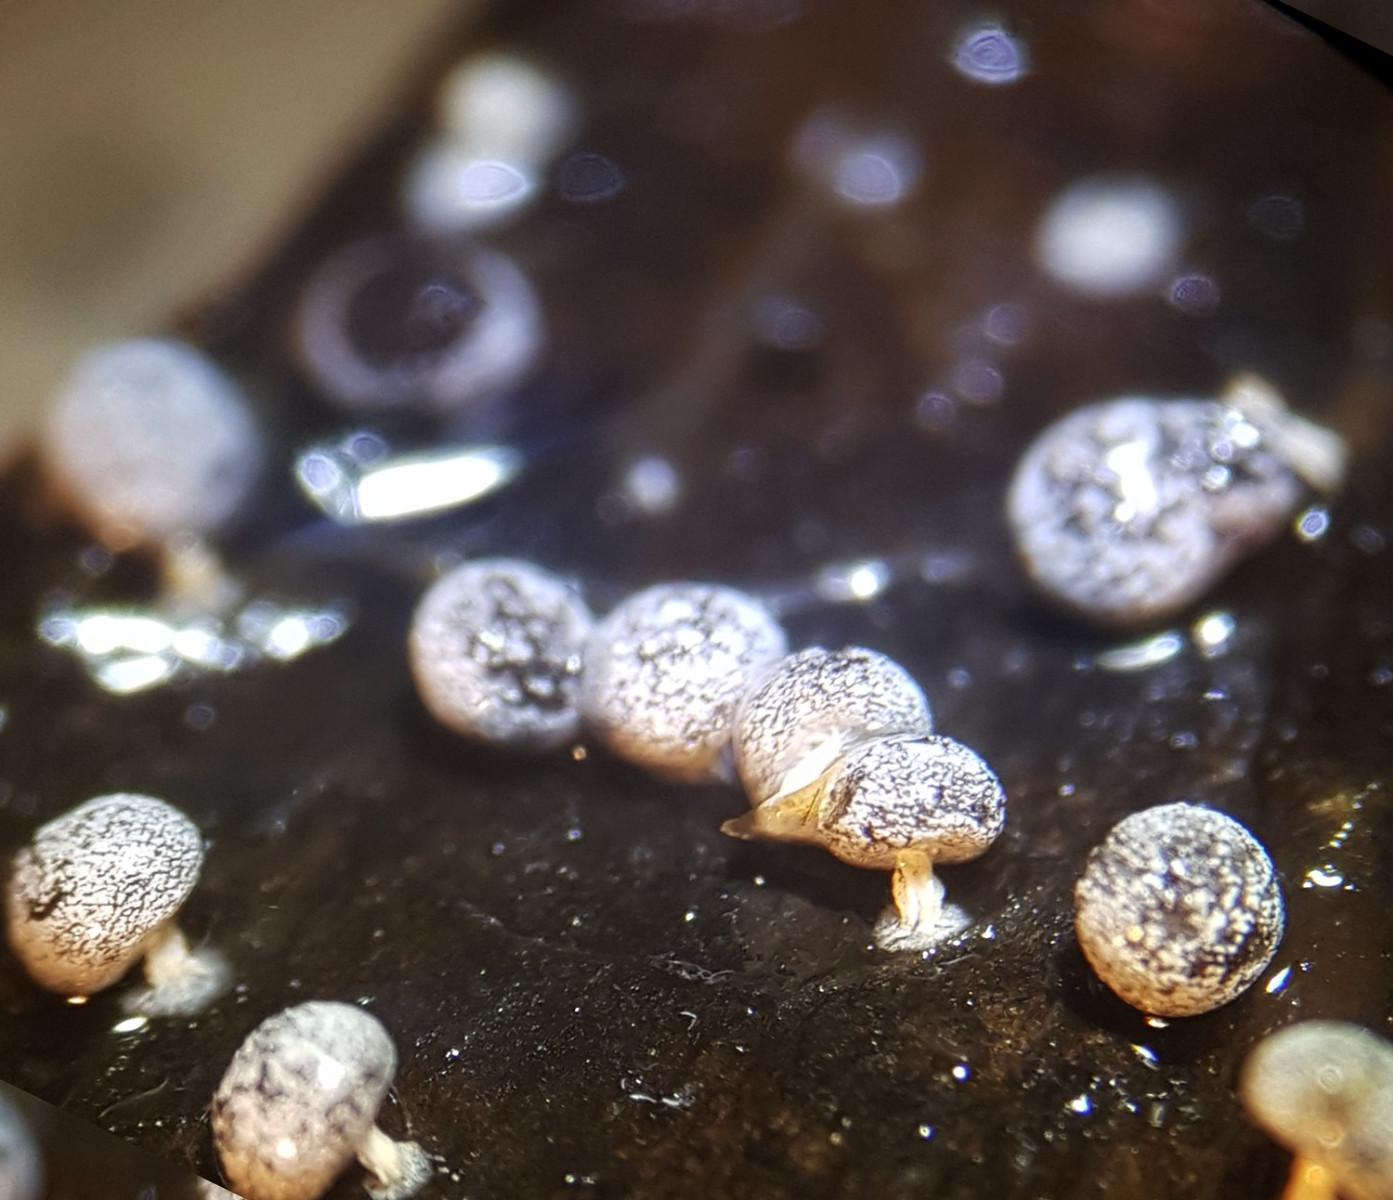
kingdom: Protozoa
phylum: Mycetozoa
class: Myxomycetes
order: Physarales
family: Didymiaceae
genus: Didymium
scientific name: Didymium squamulosum
